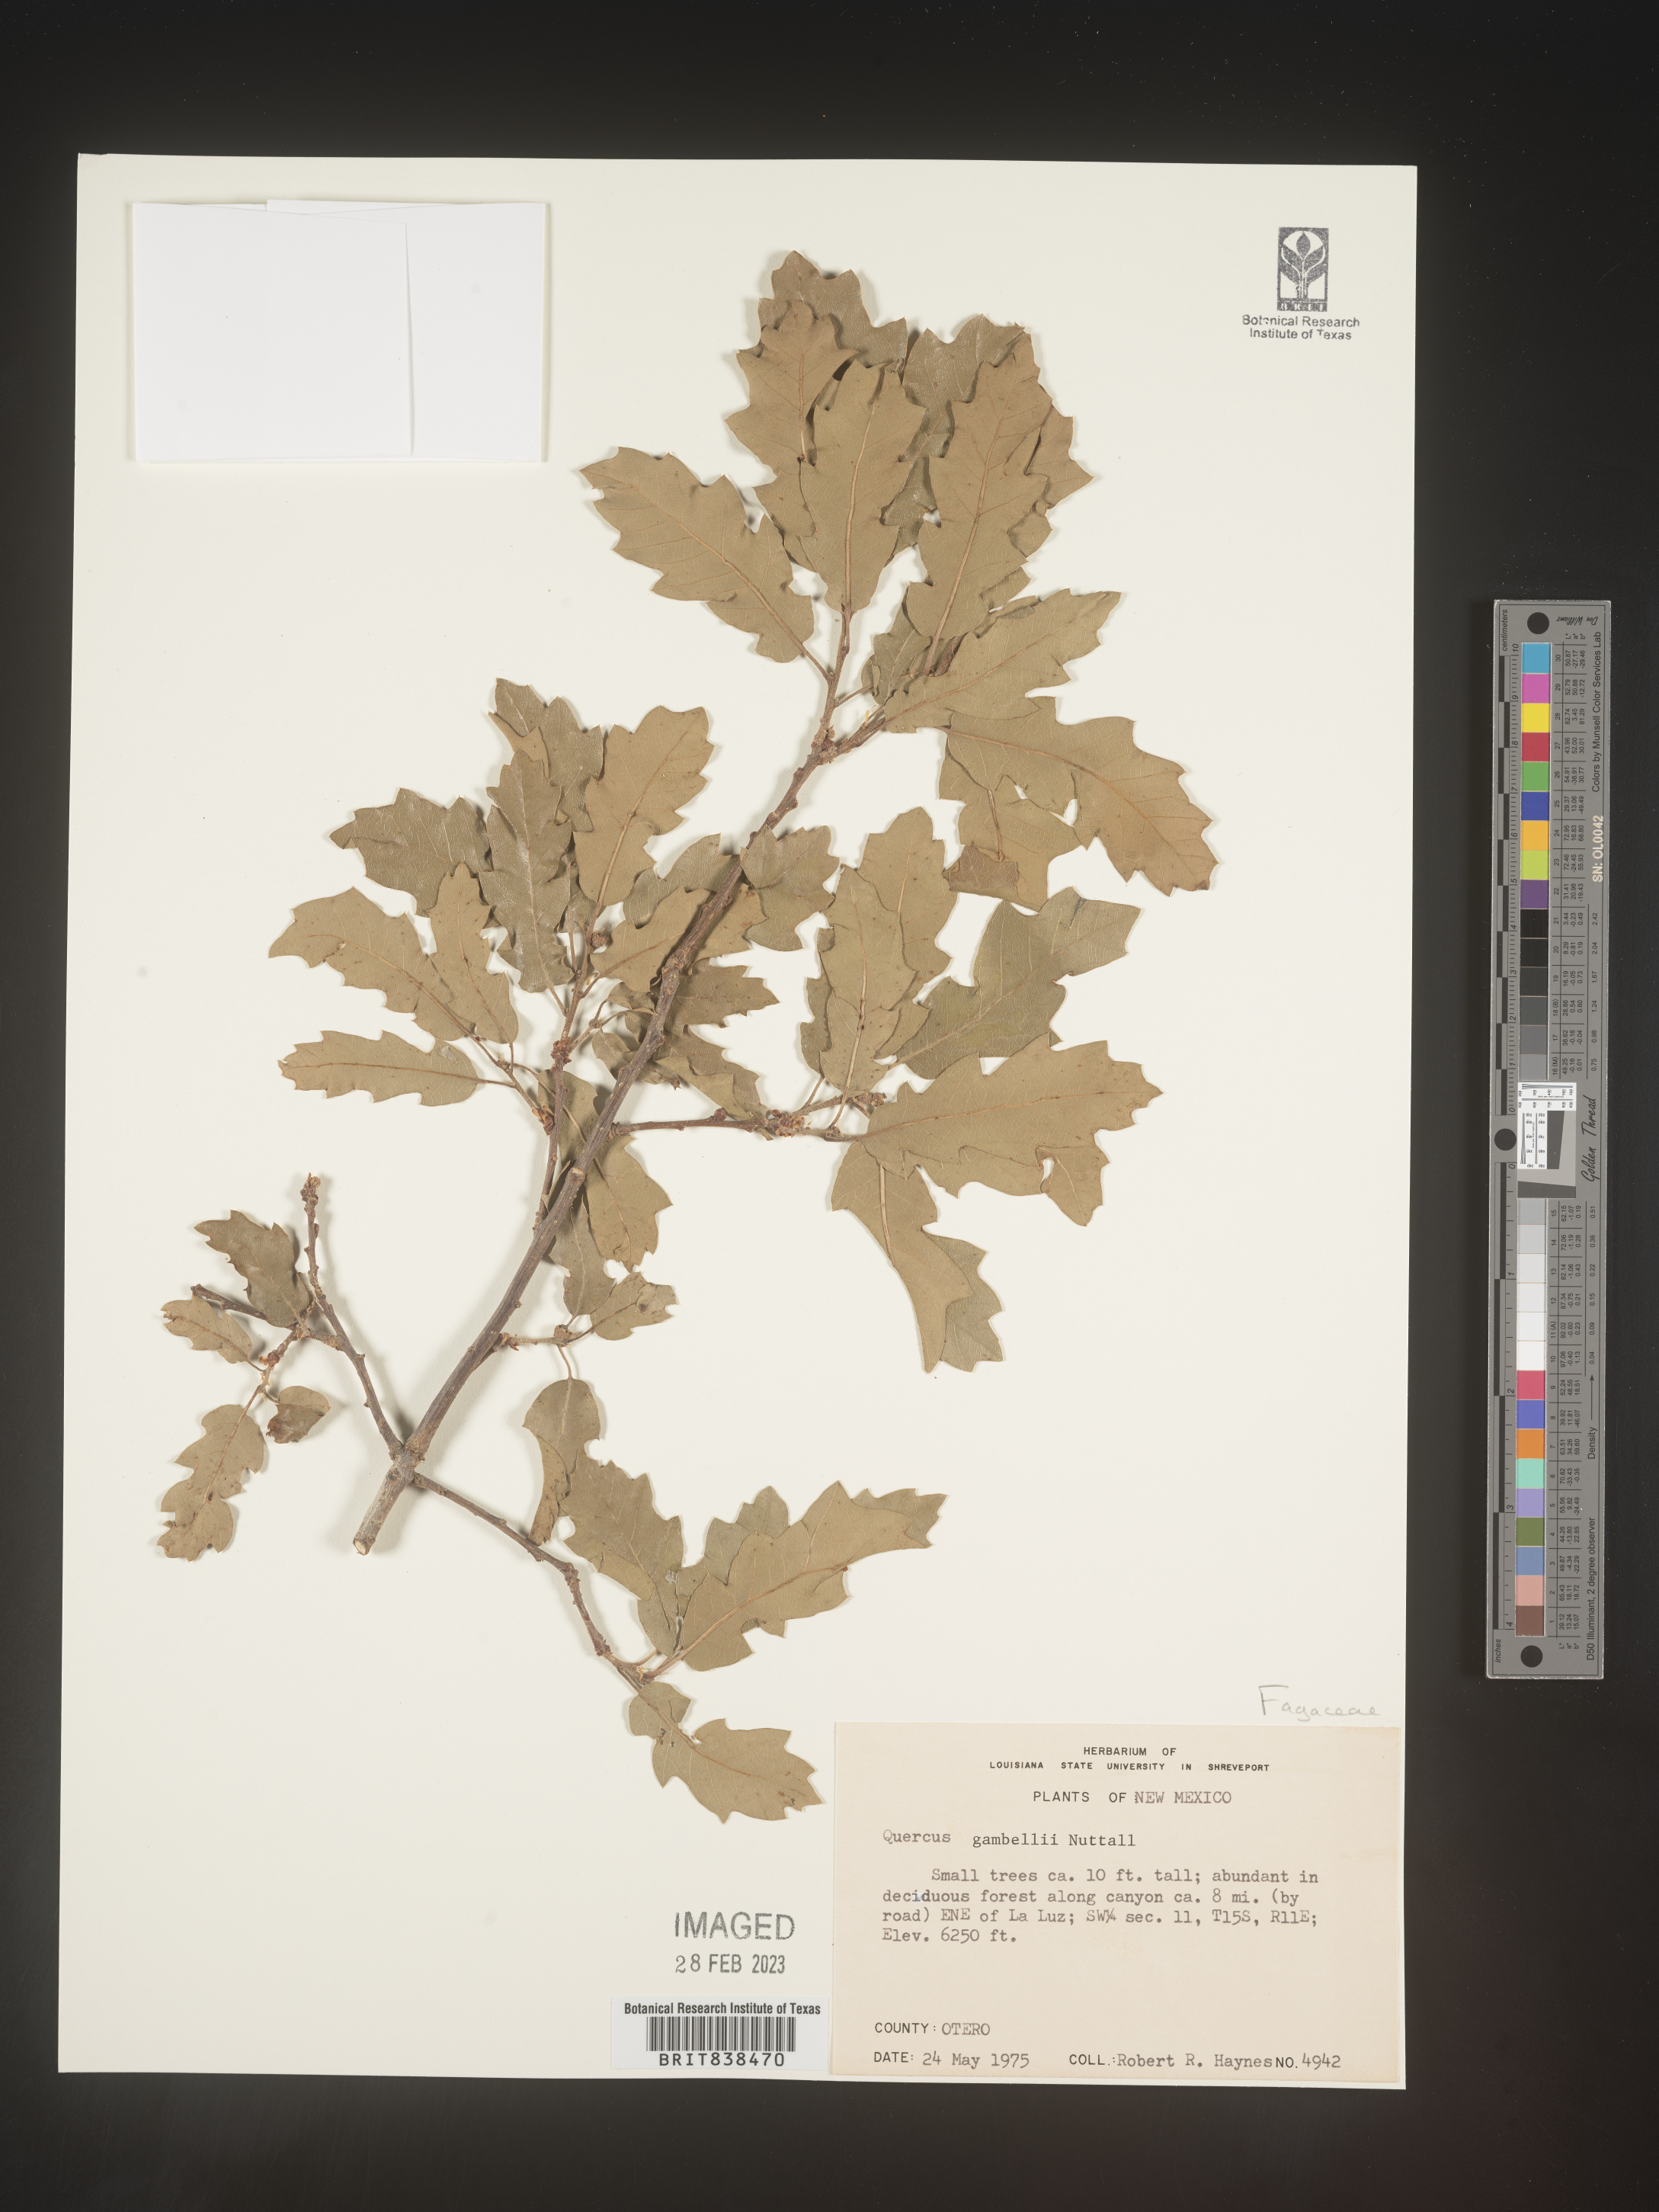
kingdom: Plantae
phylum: Tracheophyta
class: Magnoliopsida
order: Fagales
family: Fagaceae
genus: Quercus
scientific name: Quercus gambelii
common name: Gambel oak
